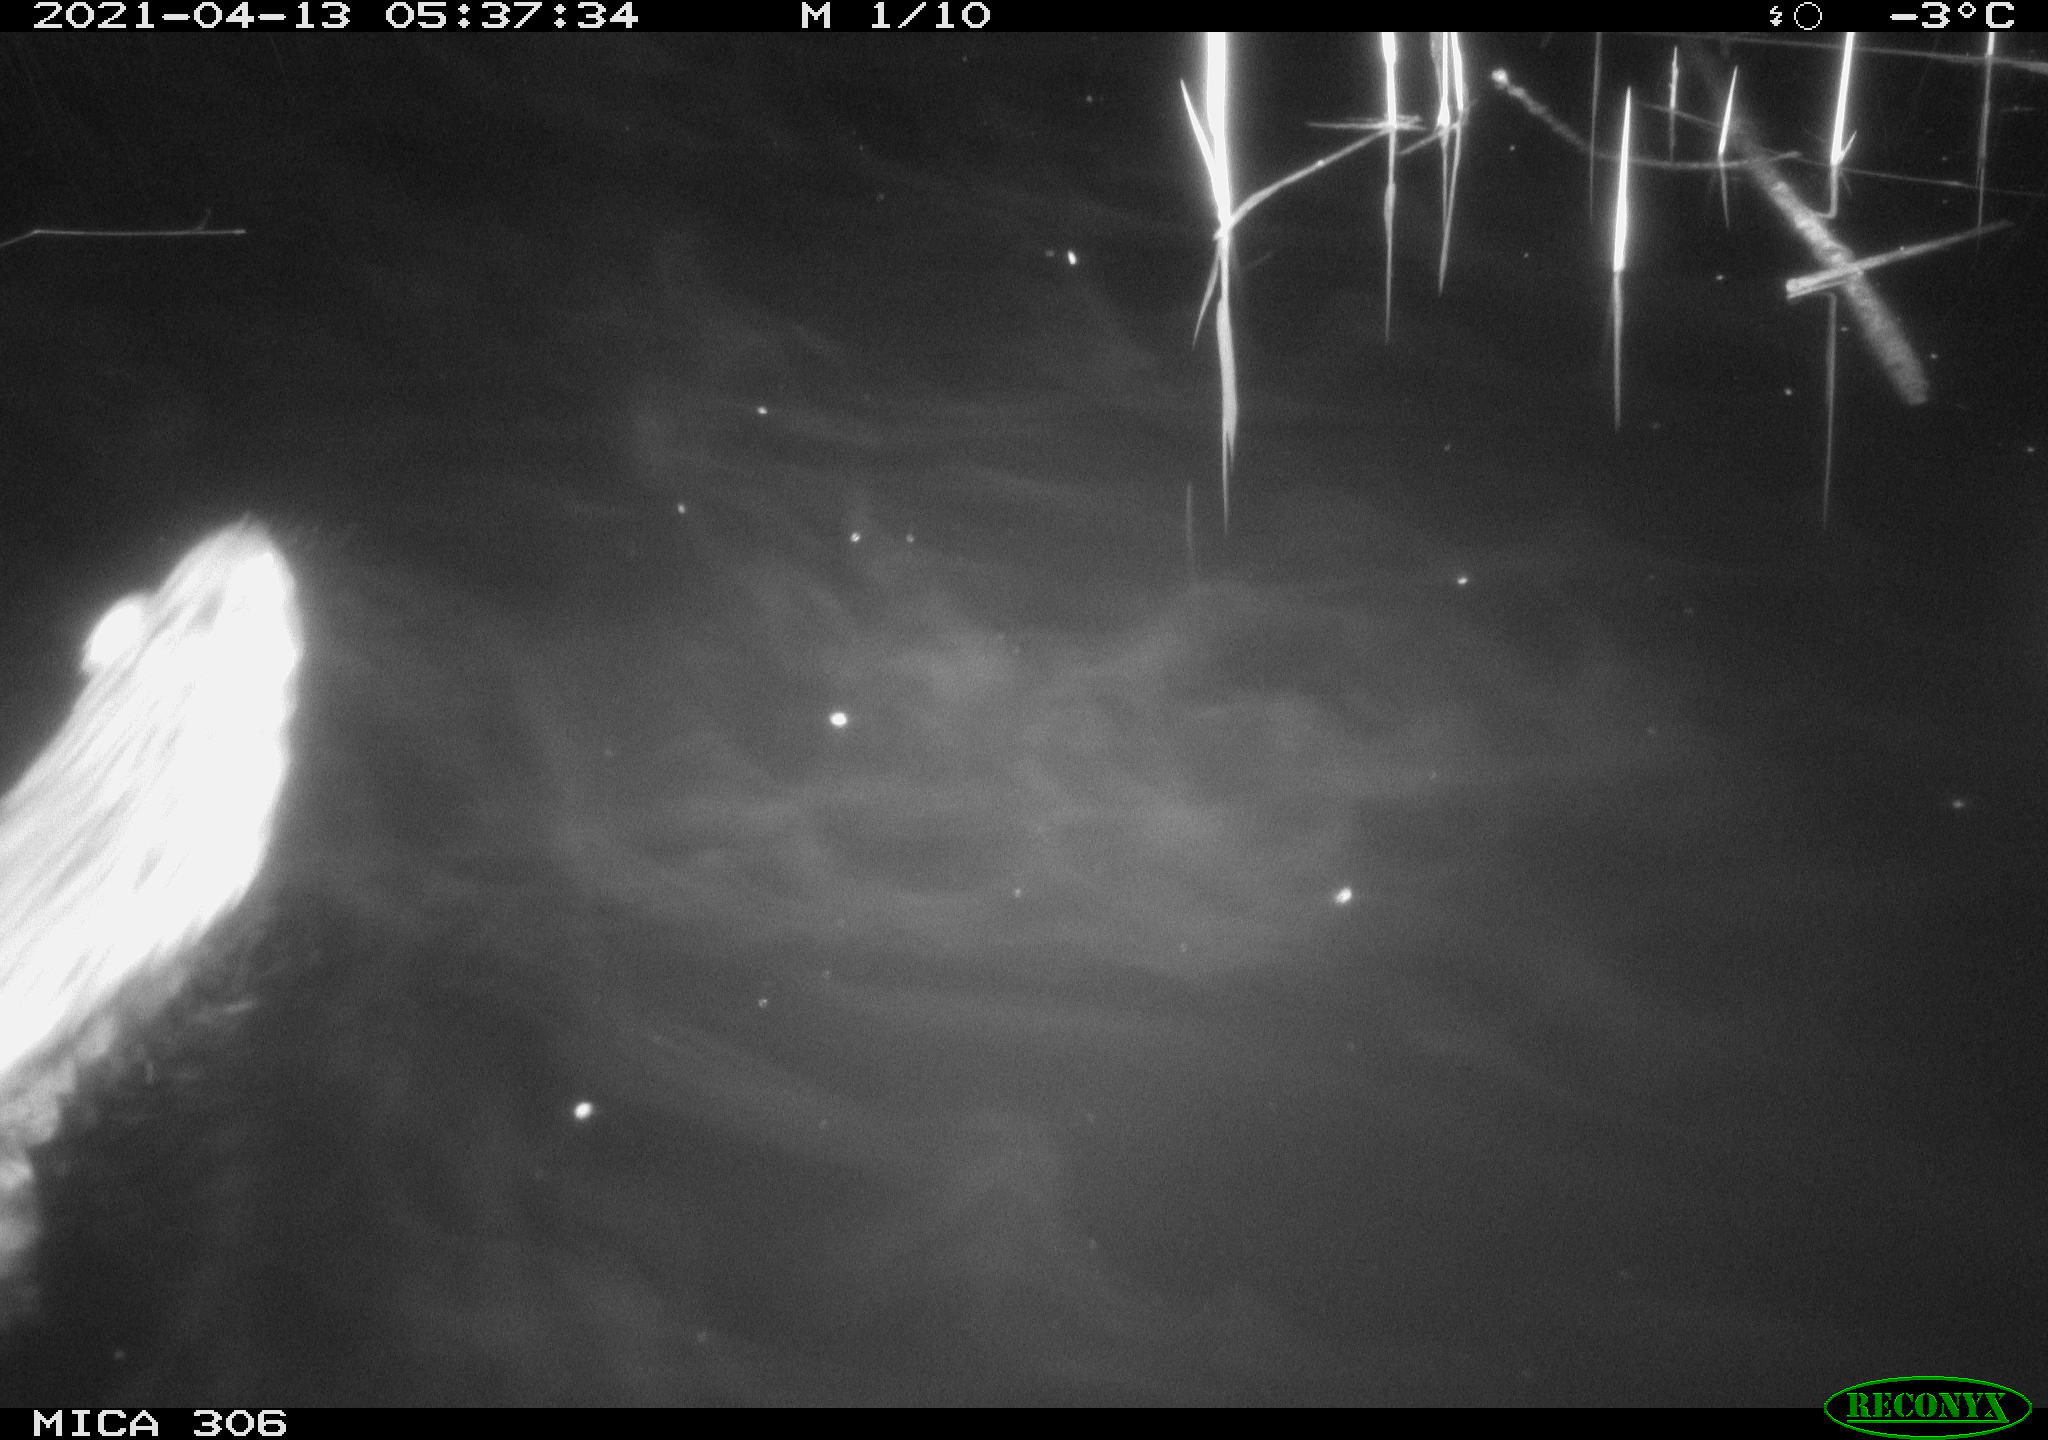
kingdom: Animalia
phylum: Chordata
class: Mammalia
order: Rodentia
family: Cricetidae
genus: Ondatra
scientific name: Ondatra zibethicus
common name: Muskrat
